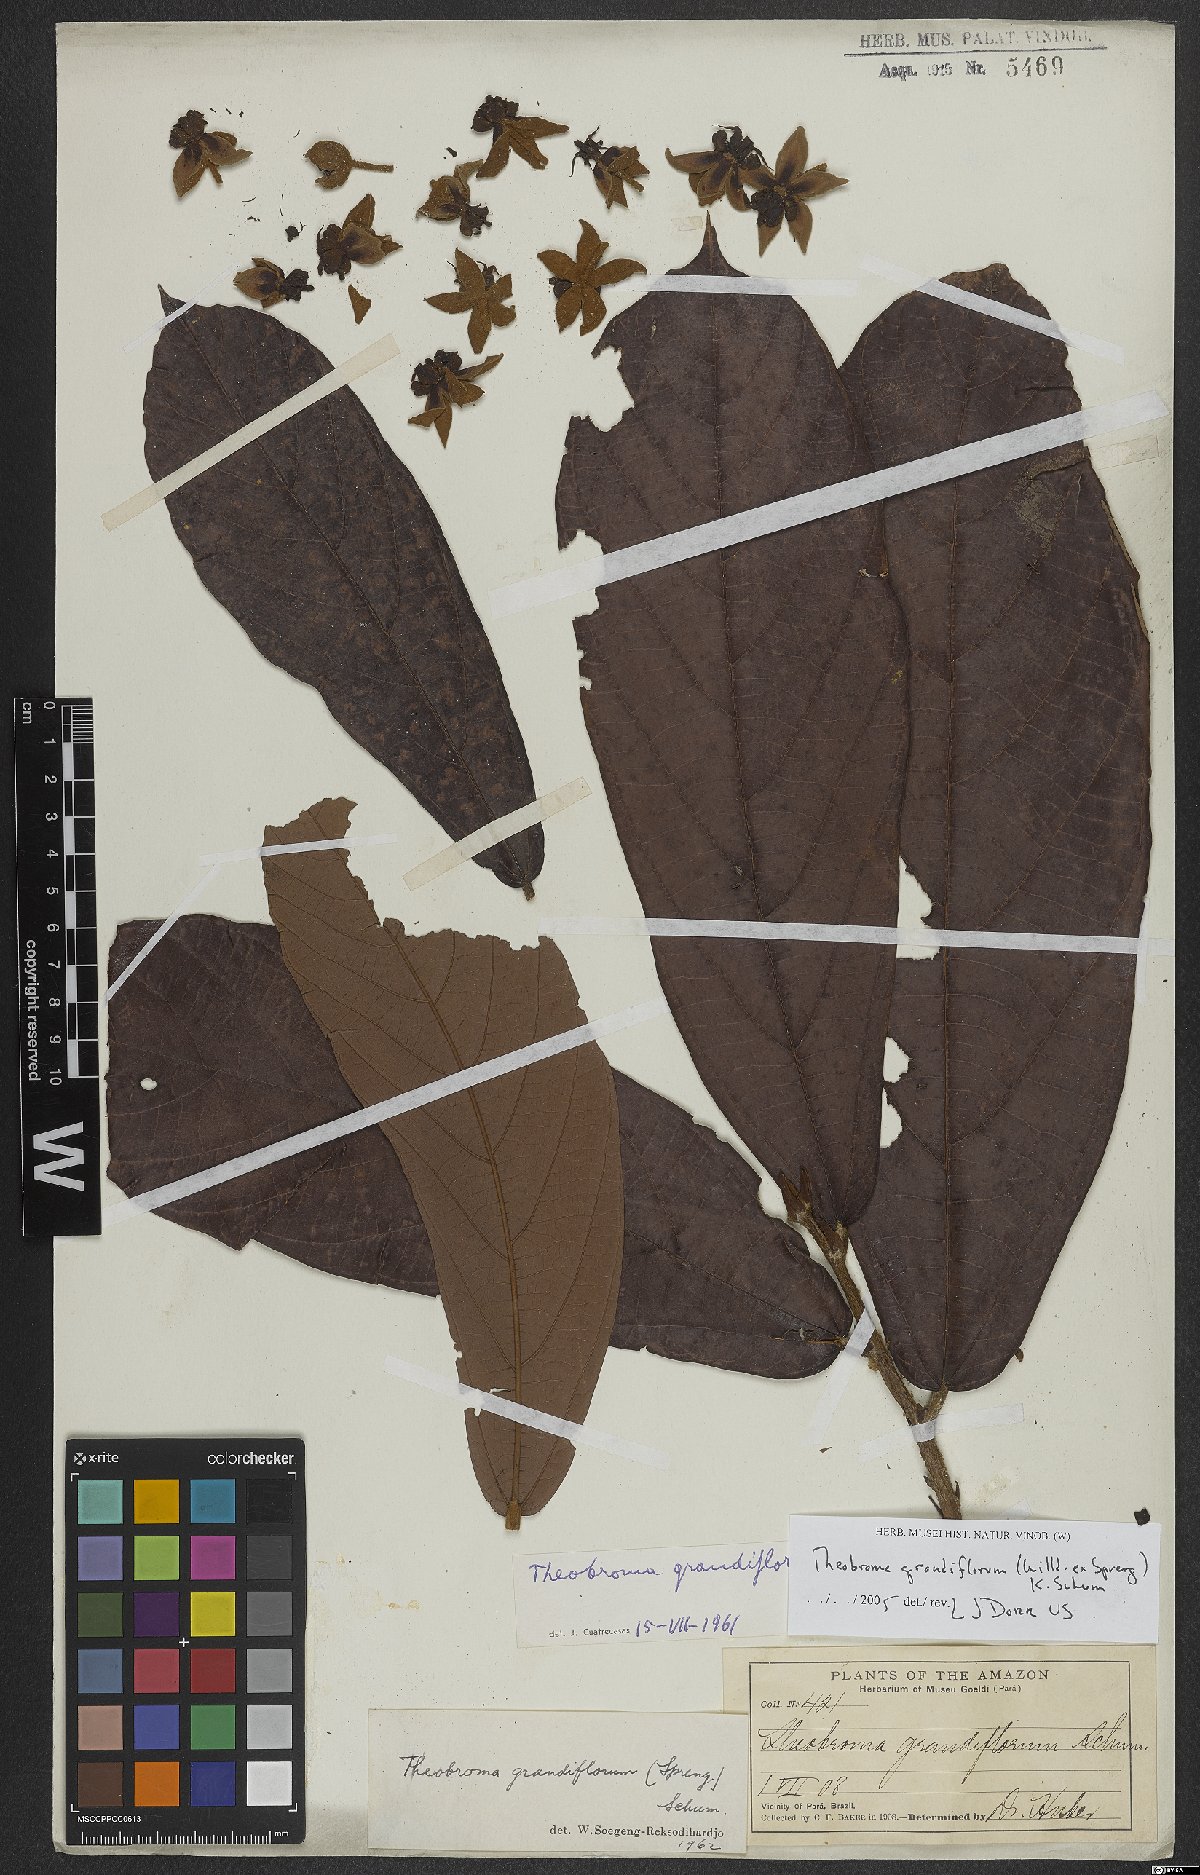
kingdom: Plantae
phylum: Tracheophyta
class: Magnoliopsida
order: Malvales
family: Malvaceae
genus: Theobroma
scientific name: Theobroma grandiflorum
